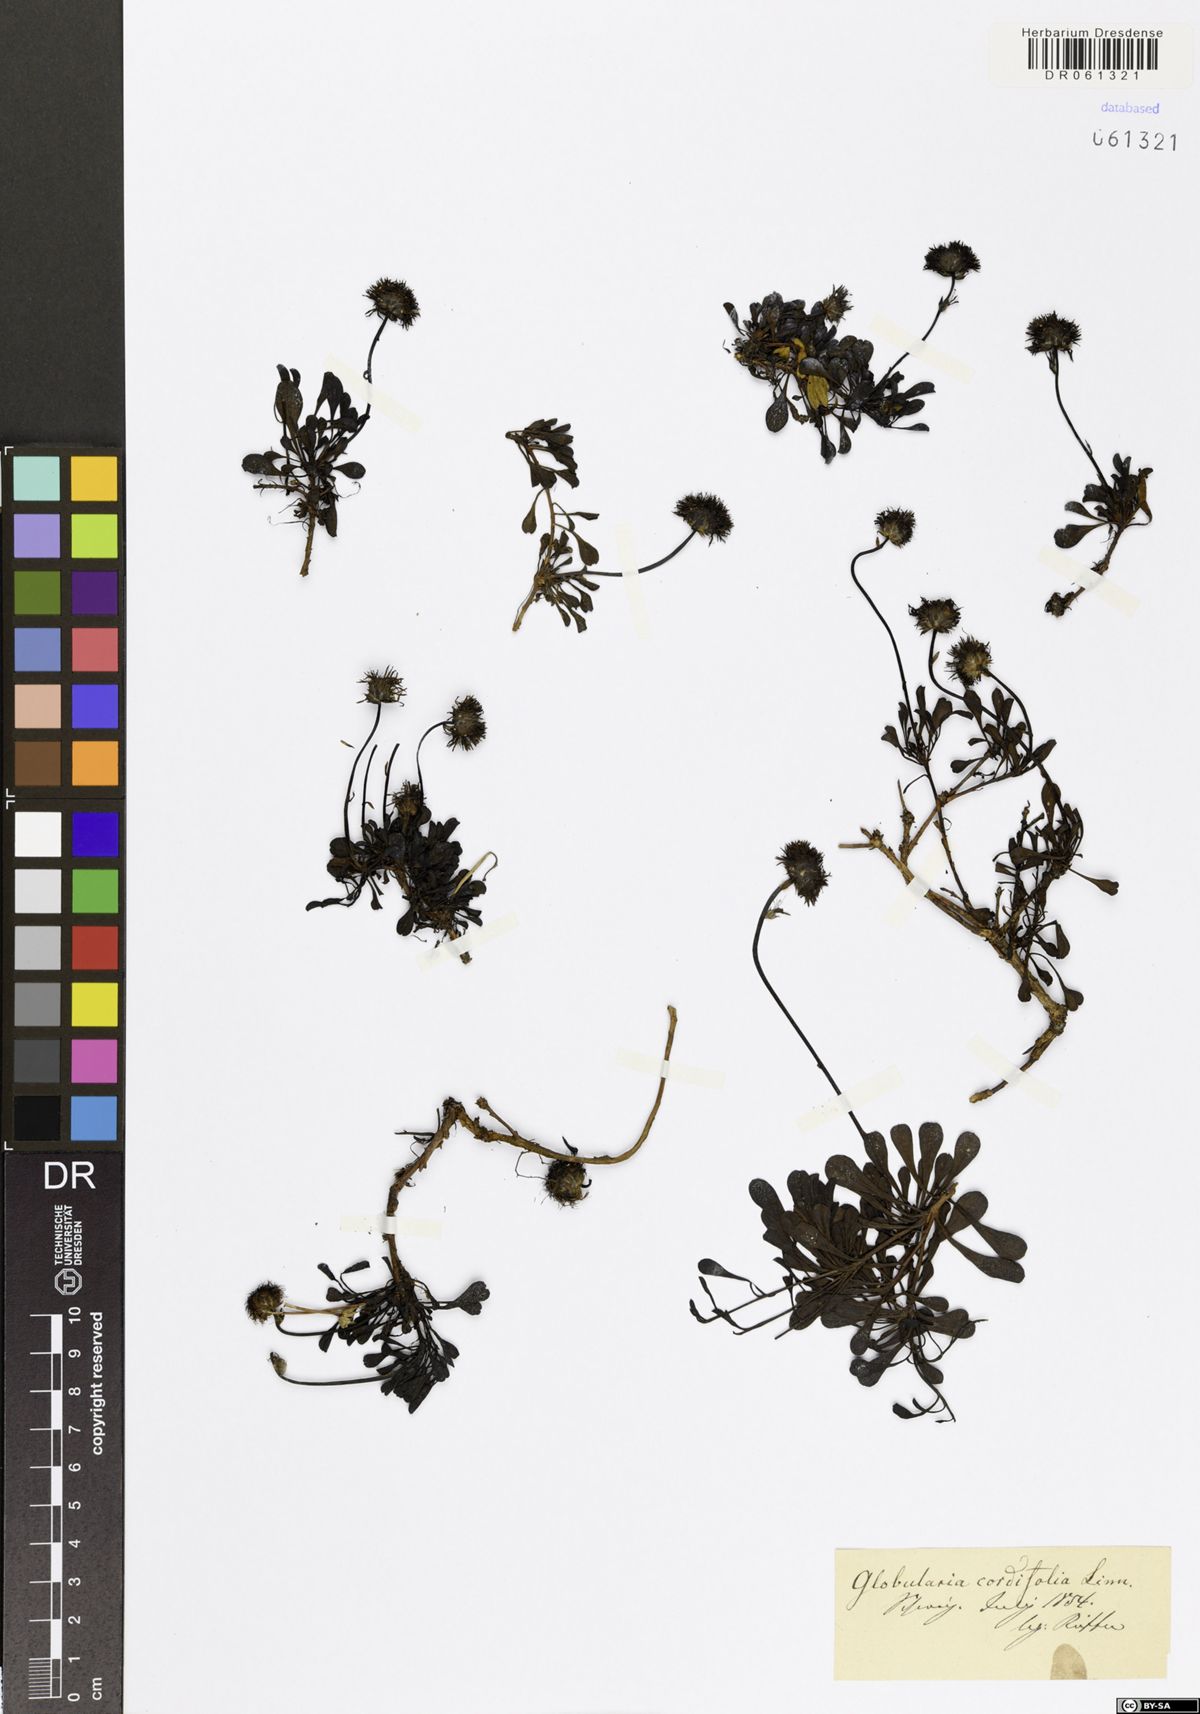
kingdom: Plantae
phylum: Tracheophyta
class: Magnoliopsida
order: Lamiales
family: Plantaginaceae
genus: Globularia
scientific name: Globularia cordifolia
